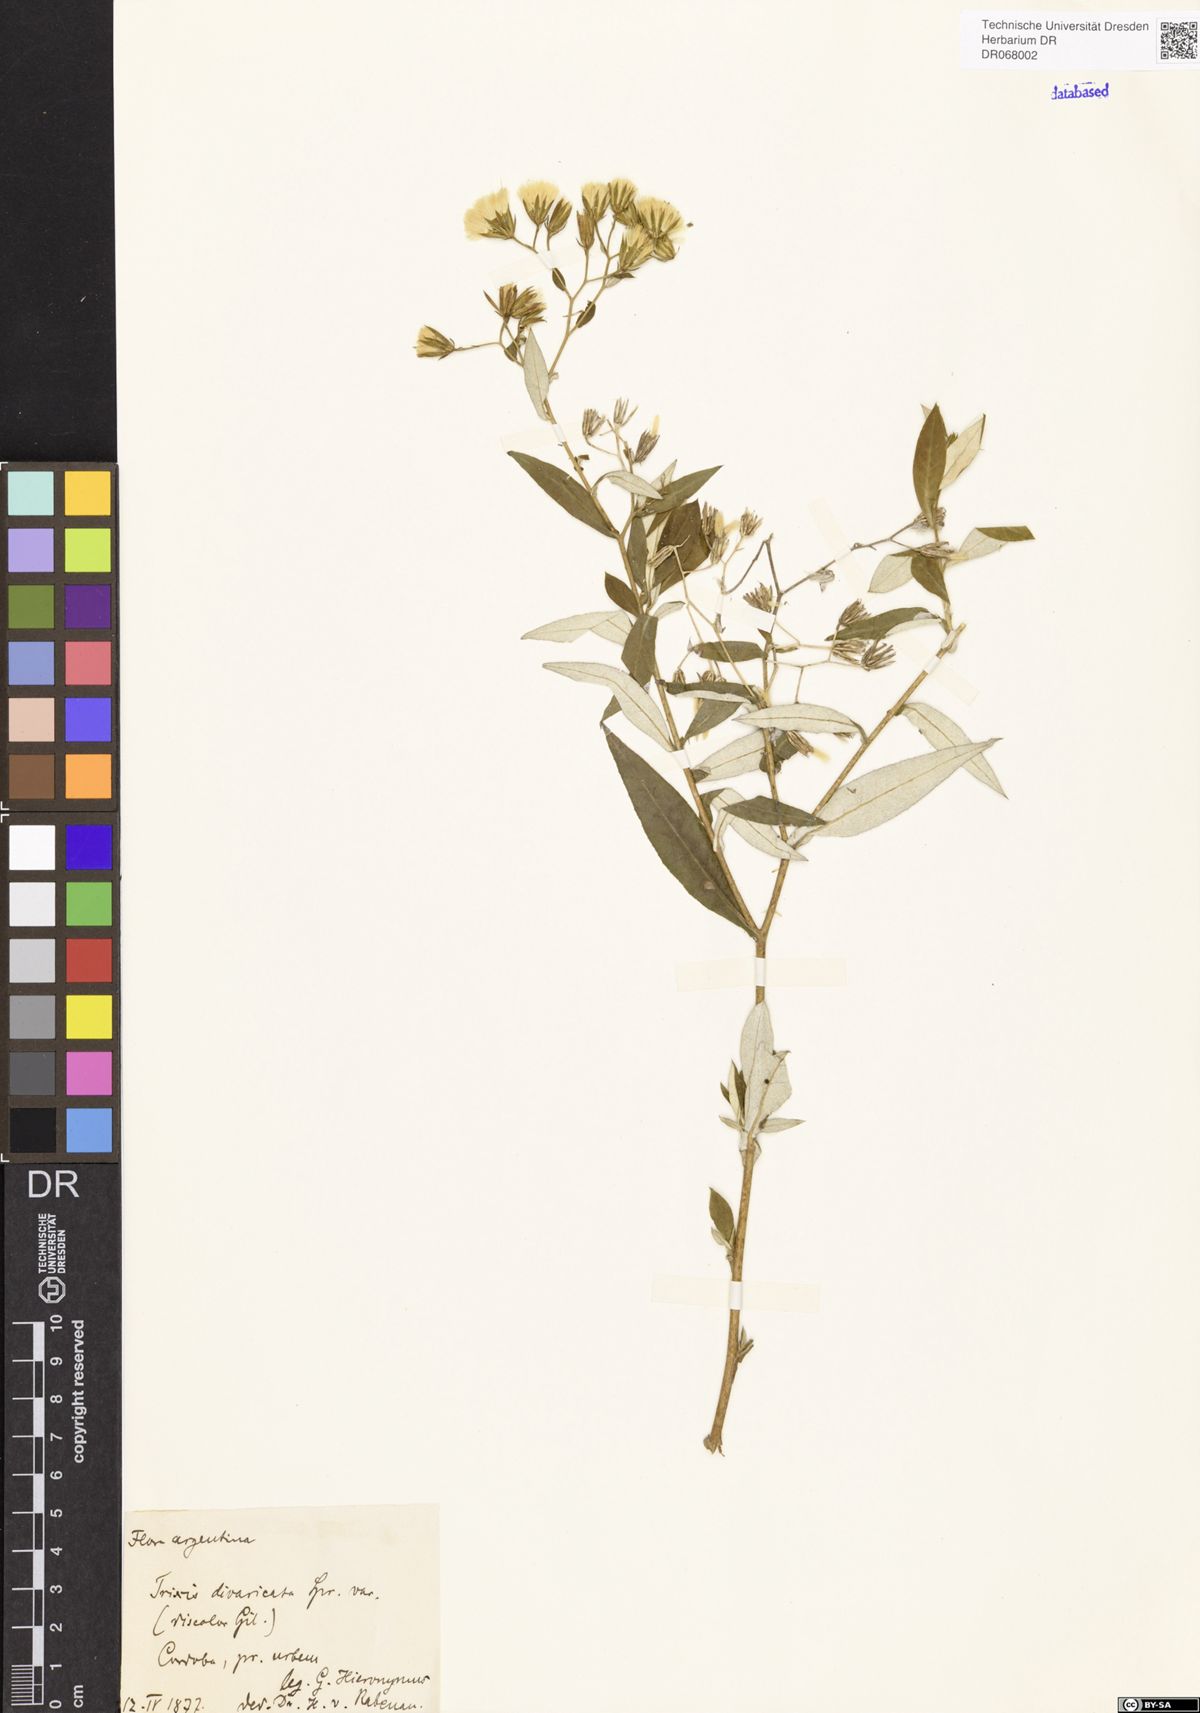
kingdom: Plantae
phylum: Tracheophyta
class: Magnoliopsida
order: Asterales
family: Asteraceae
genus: Trixis
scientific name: Trixis divaricata
